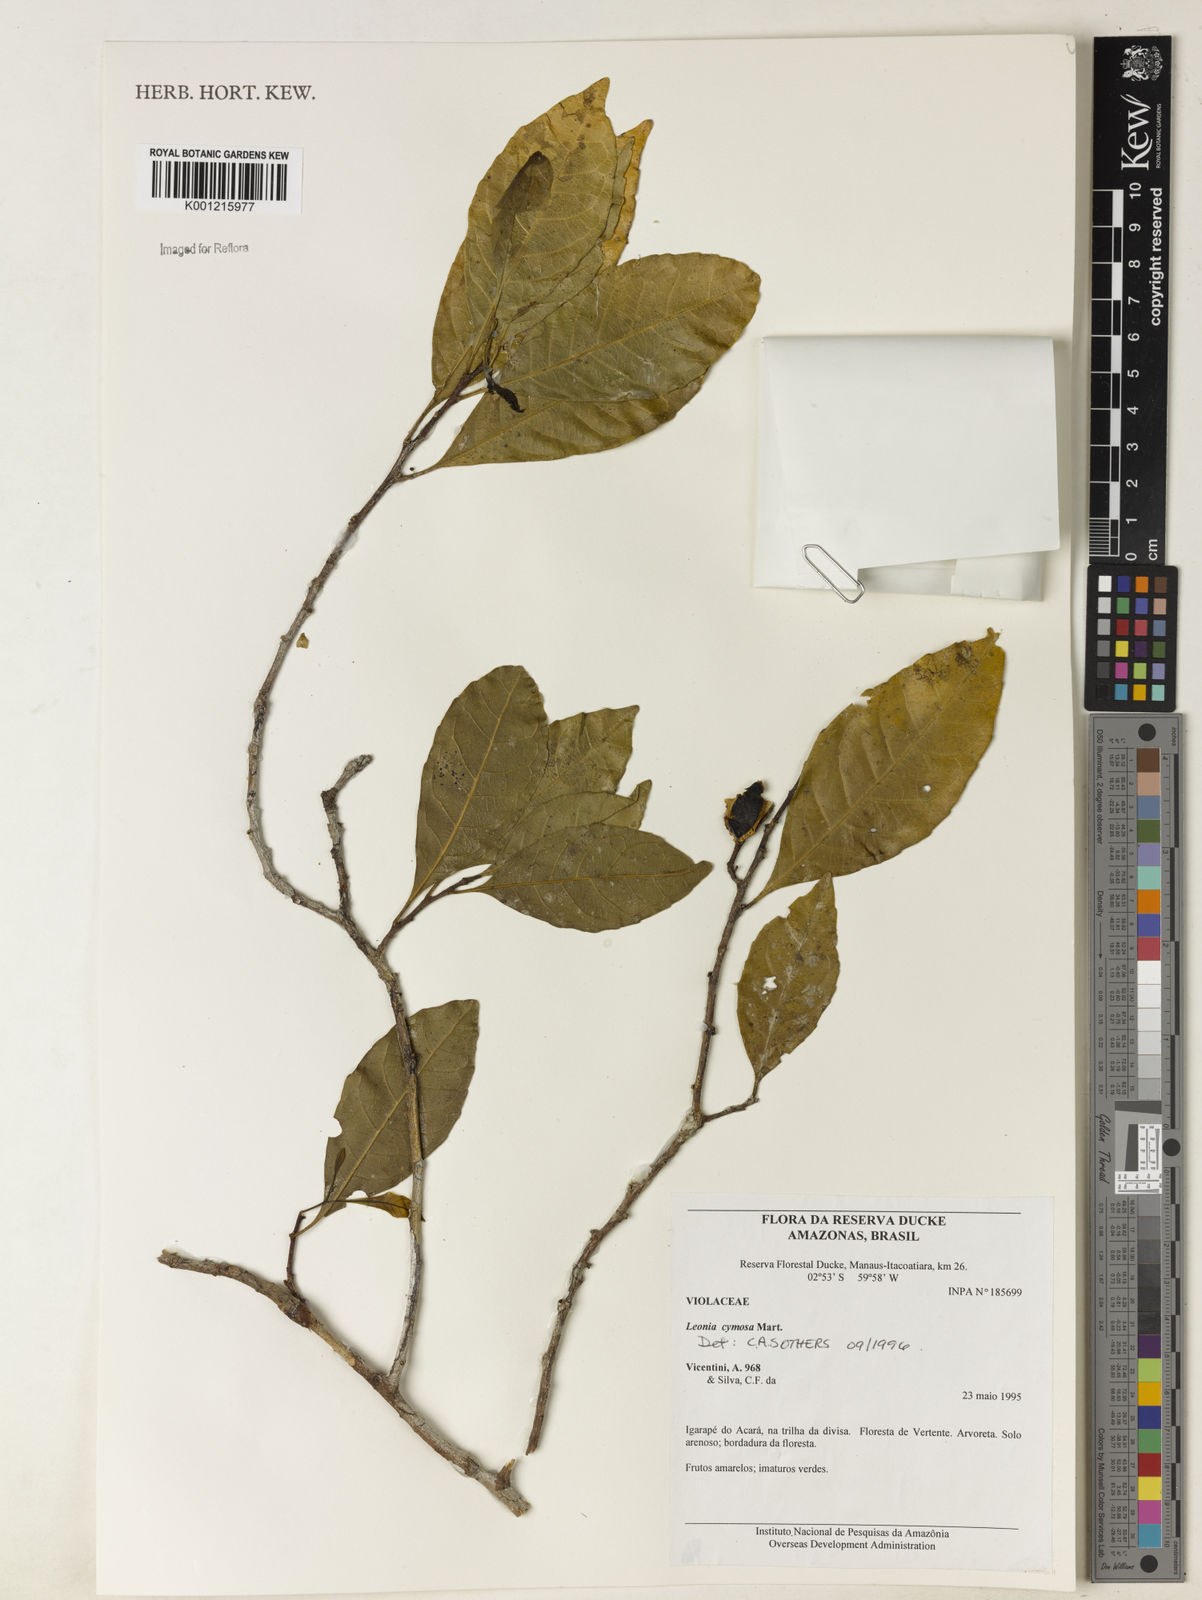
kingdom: Plantae
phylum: Tracheophyta
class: Magnoliopsida
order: Malpighiales
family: Violaceae
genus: Leonia
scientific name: Leonia cymosa
